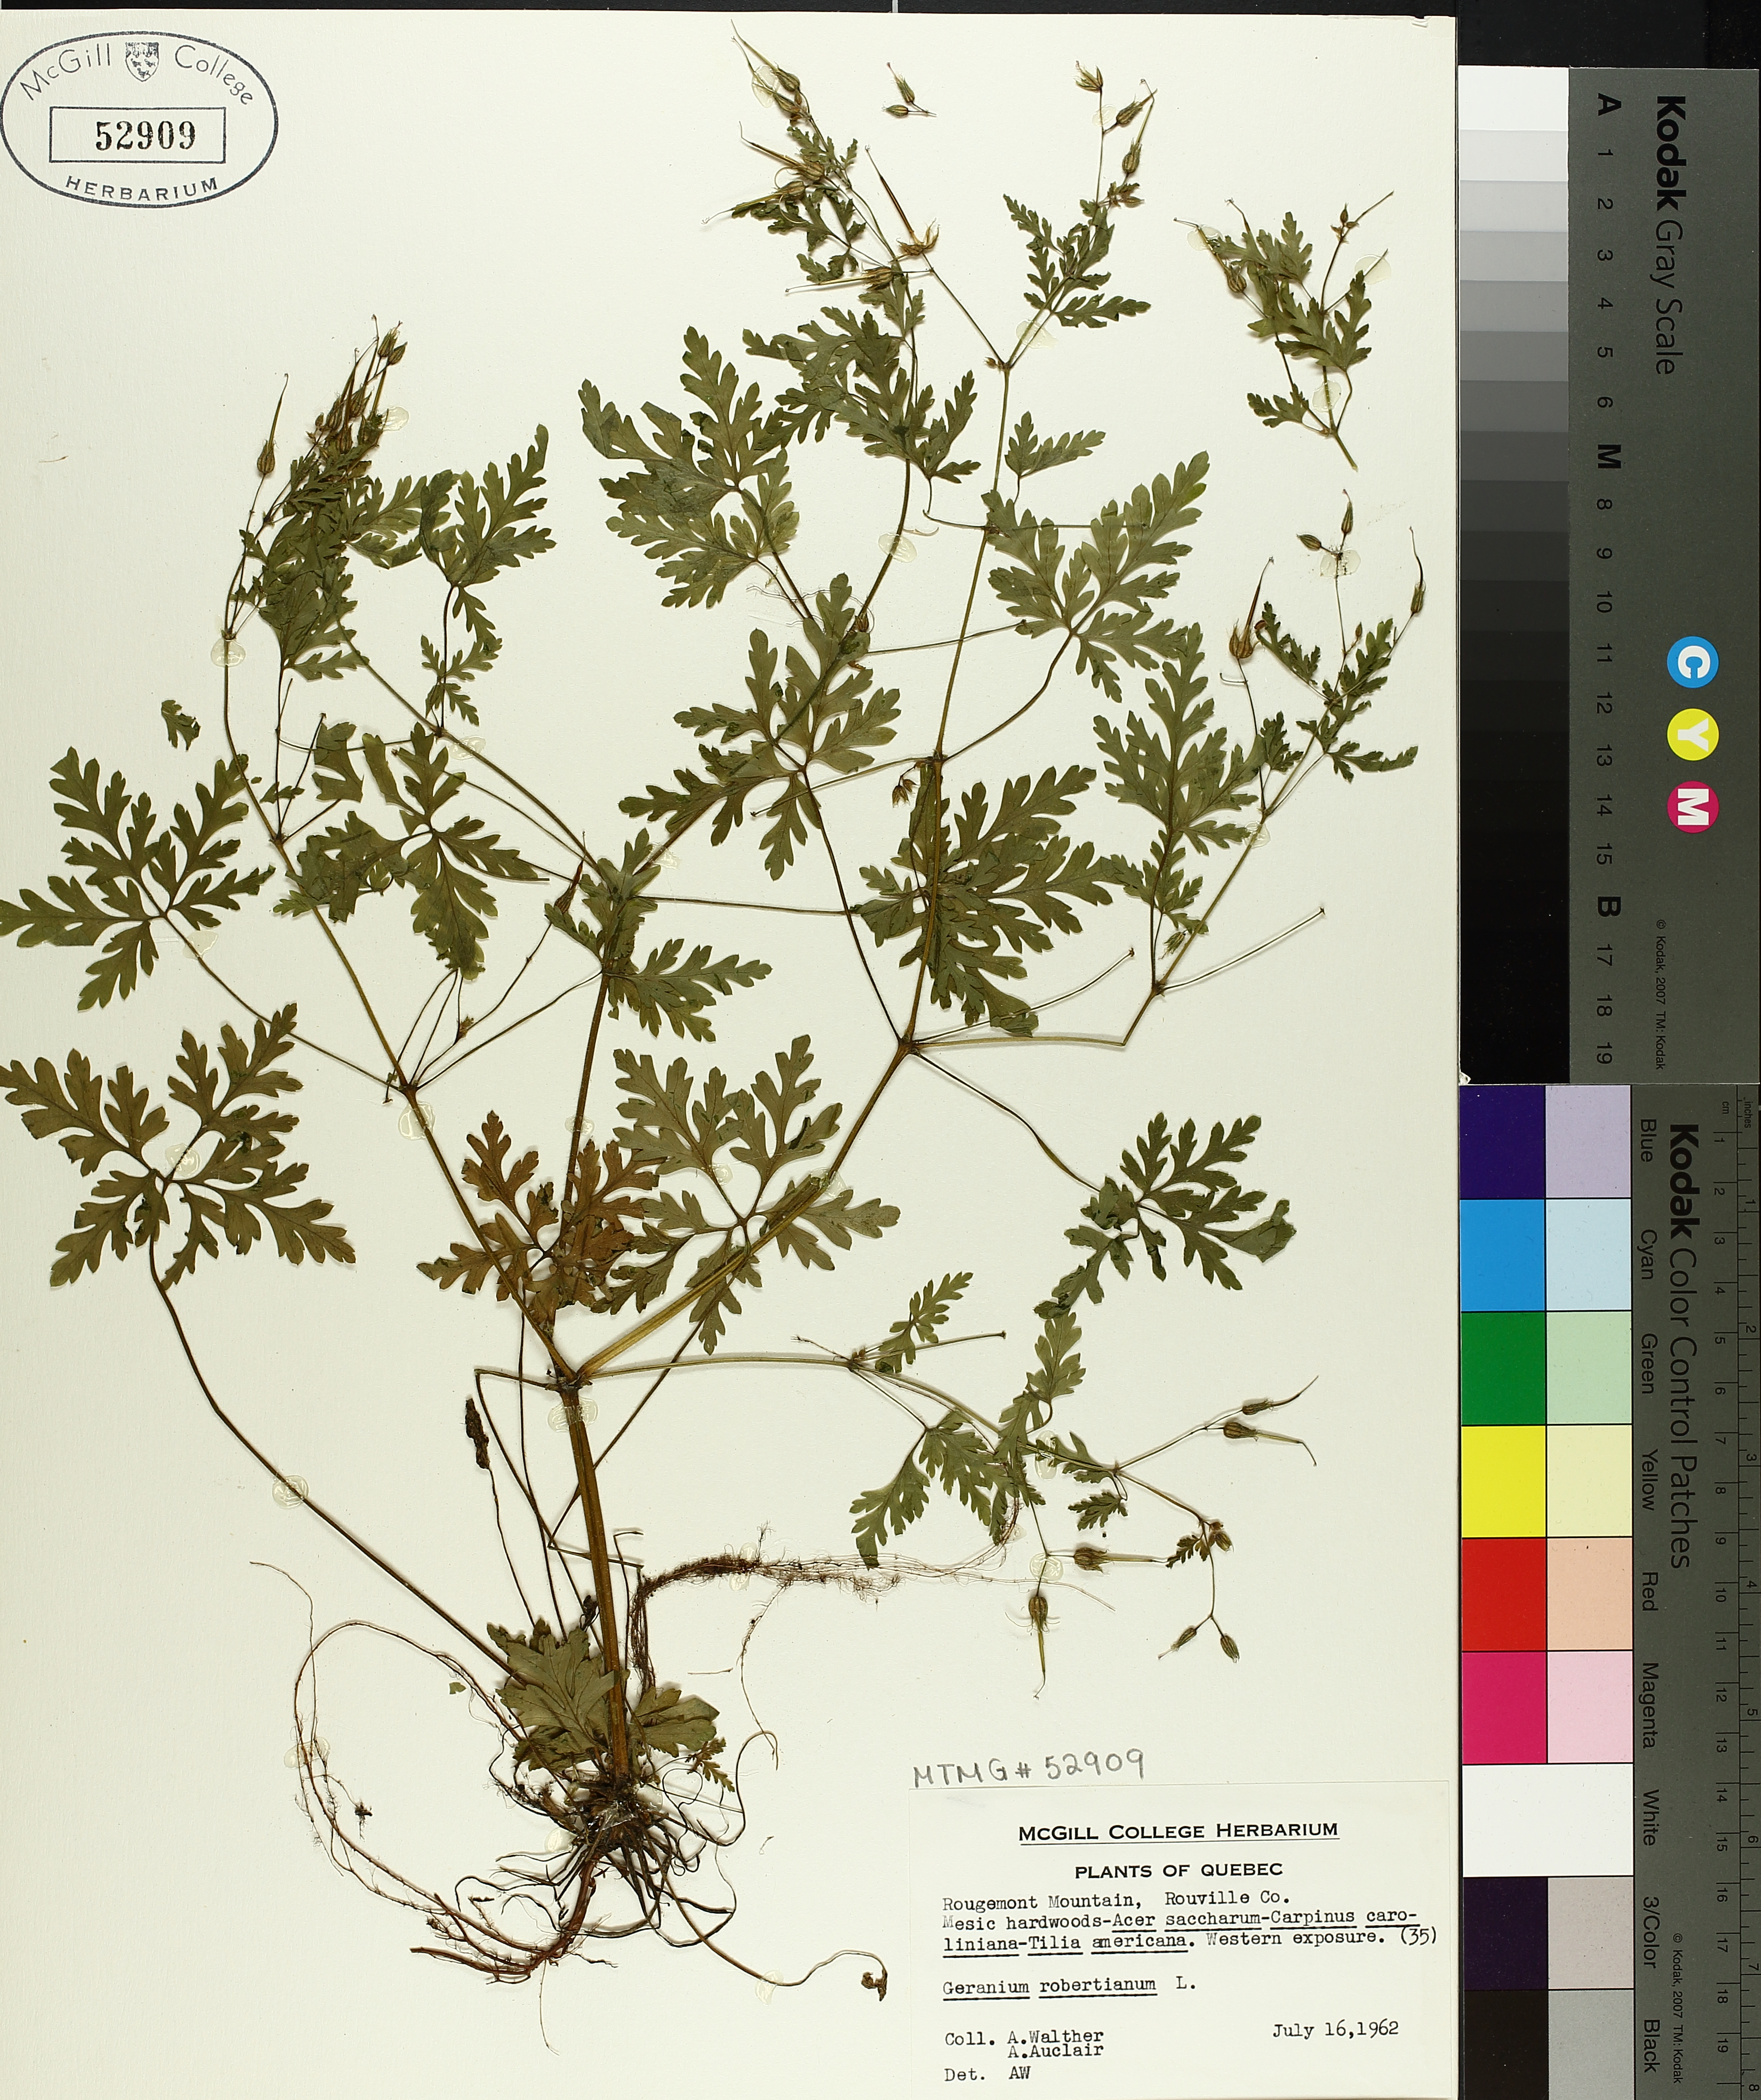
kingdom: Plantae
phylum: Tracheophyta
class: Magnoliopsida
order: Geraniales
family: Geraniaceae
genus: Geranium
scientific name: Geranium robertianum
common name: Herb-robert
